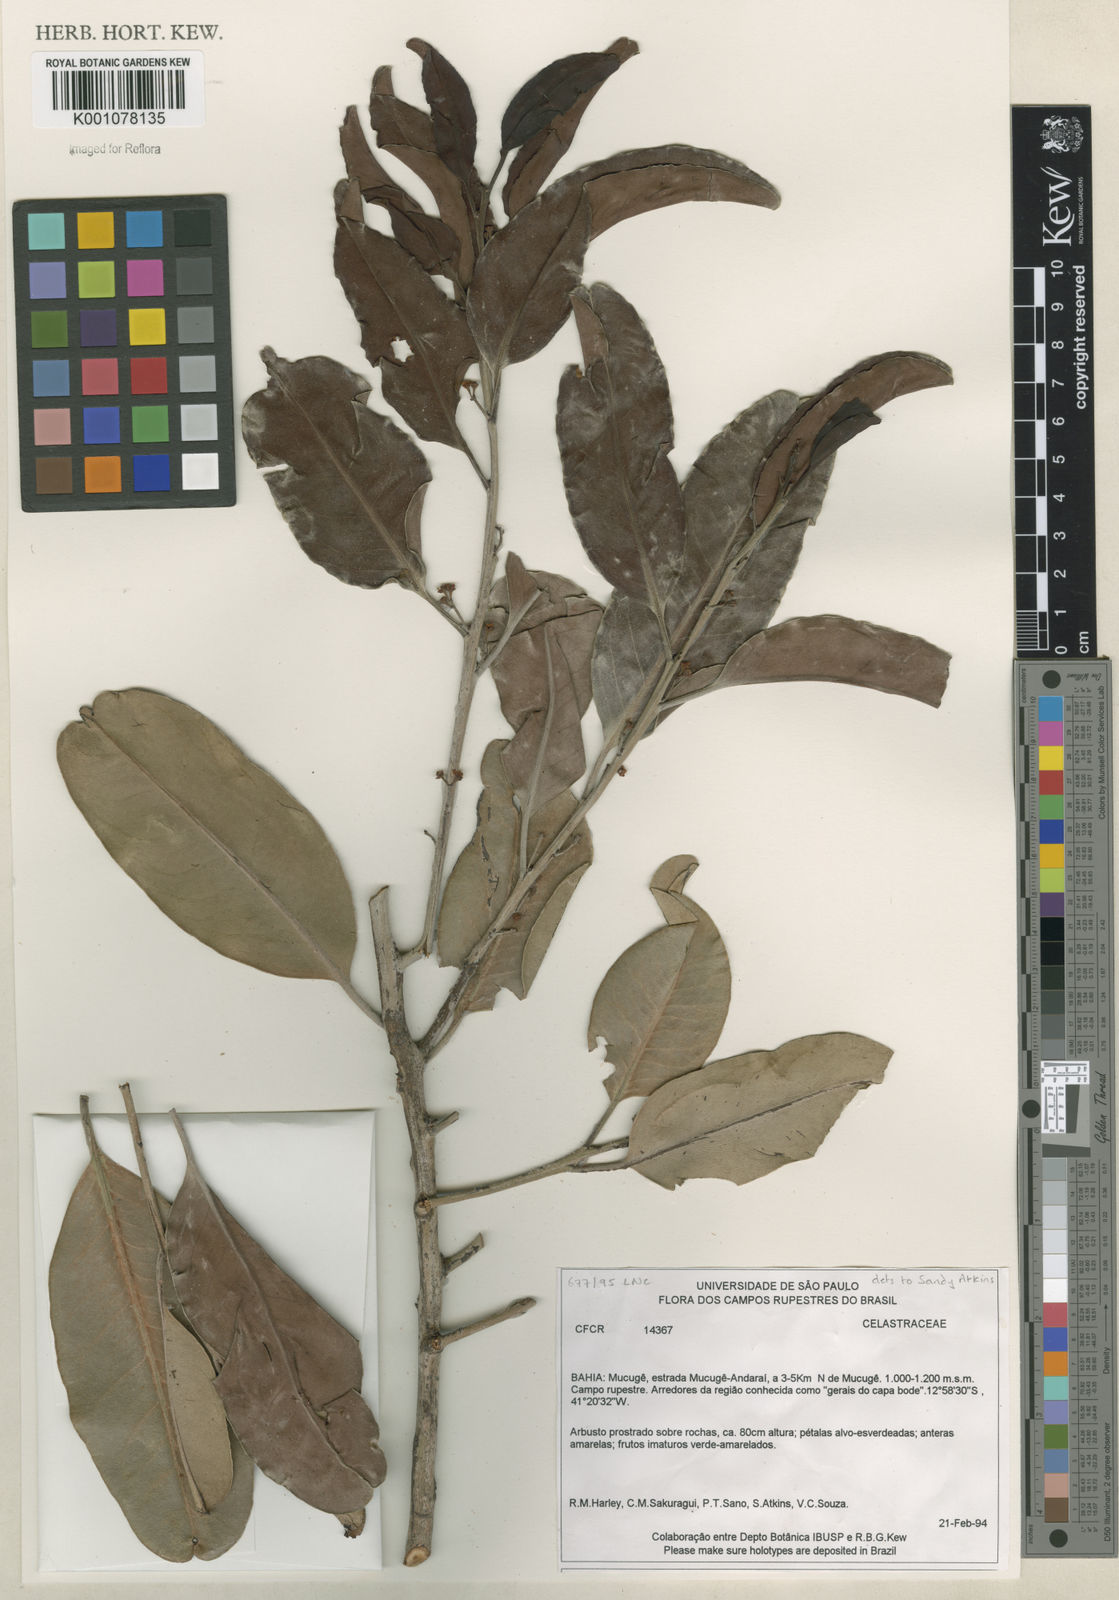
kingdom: Plantae
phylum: Tracheophyta
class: Magnoliopsida
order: Celastrales
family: Celastraceae
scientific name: Celastraceae
